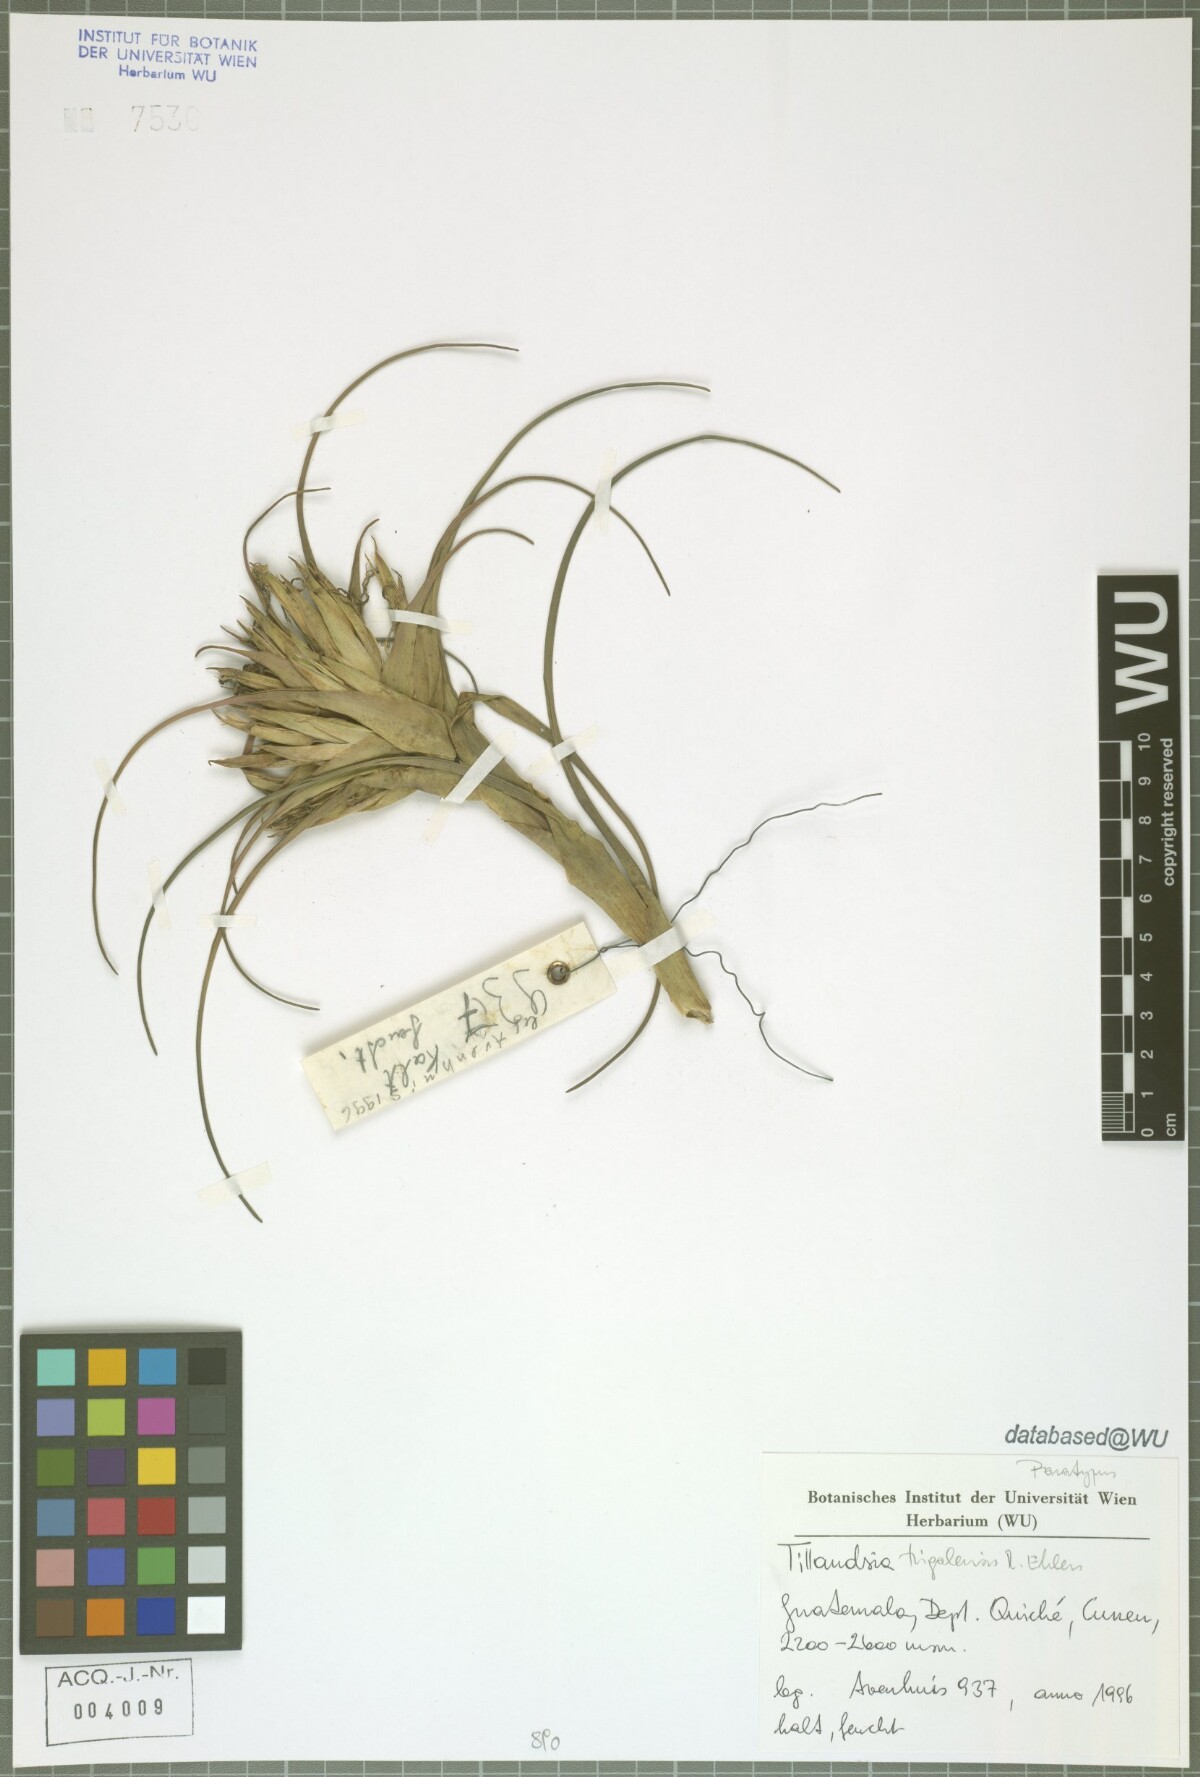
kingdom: Plantae
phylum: Tracheophyta
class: Liliopsida
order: Poales
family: Bromeliaceae
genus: Tillandsia
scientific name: Tillandsia trigalensis
